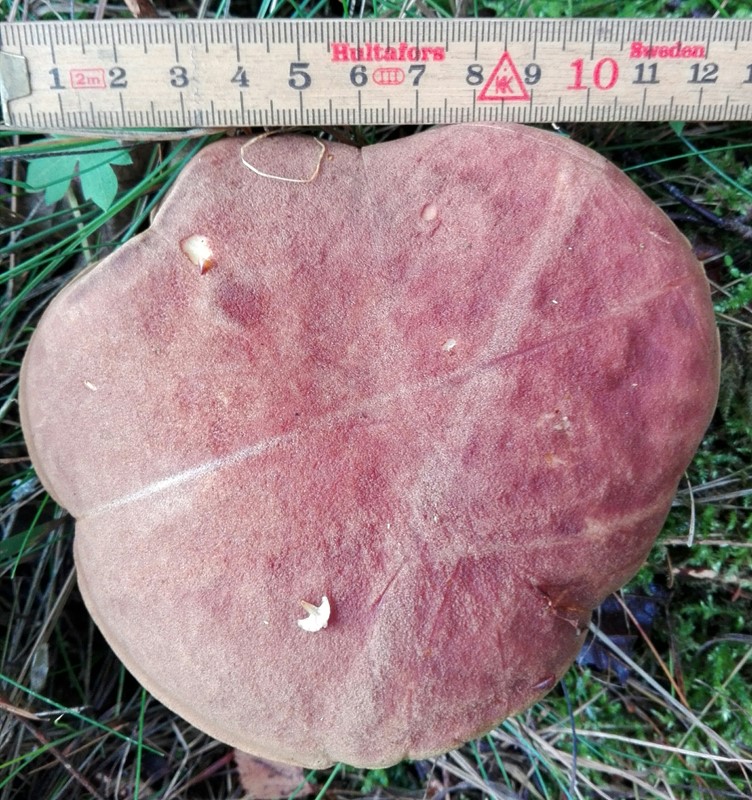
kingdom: Fungi
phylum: Basidiomycota
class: Agaricomycetes
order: Boletales
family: Boletaceae
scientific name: Boletaceae
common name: rørhatfamilien
